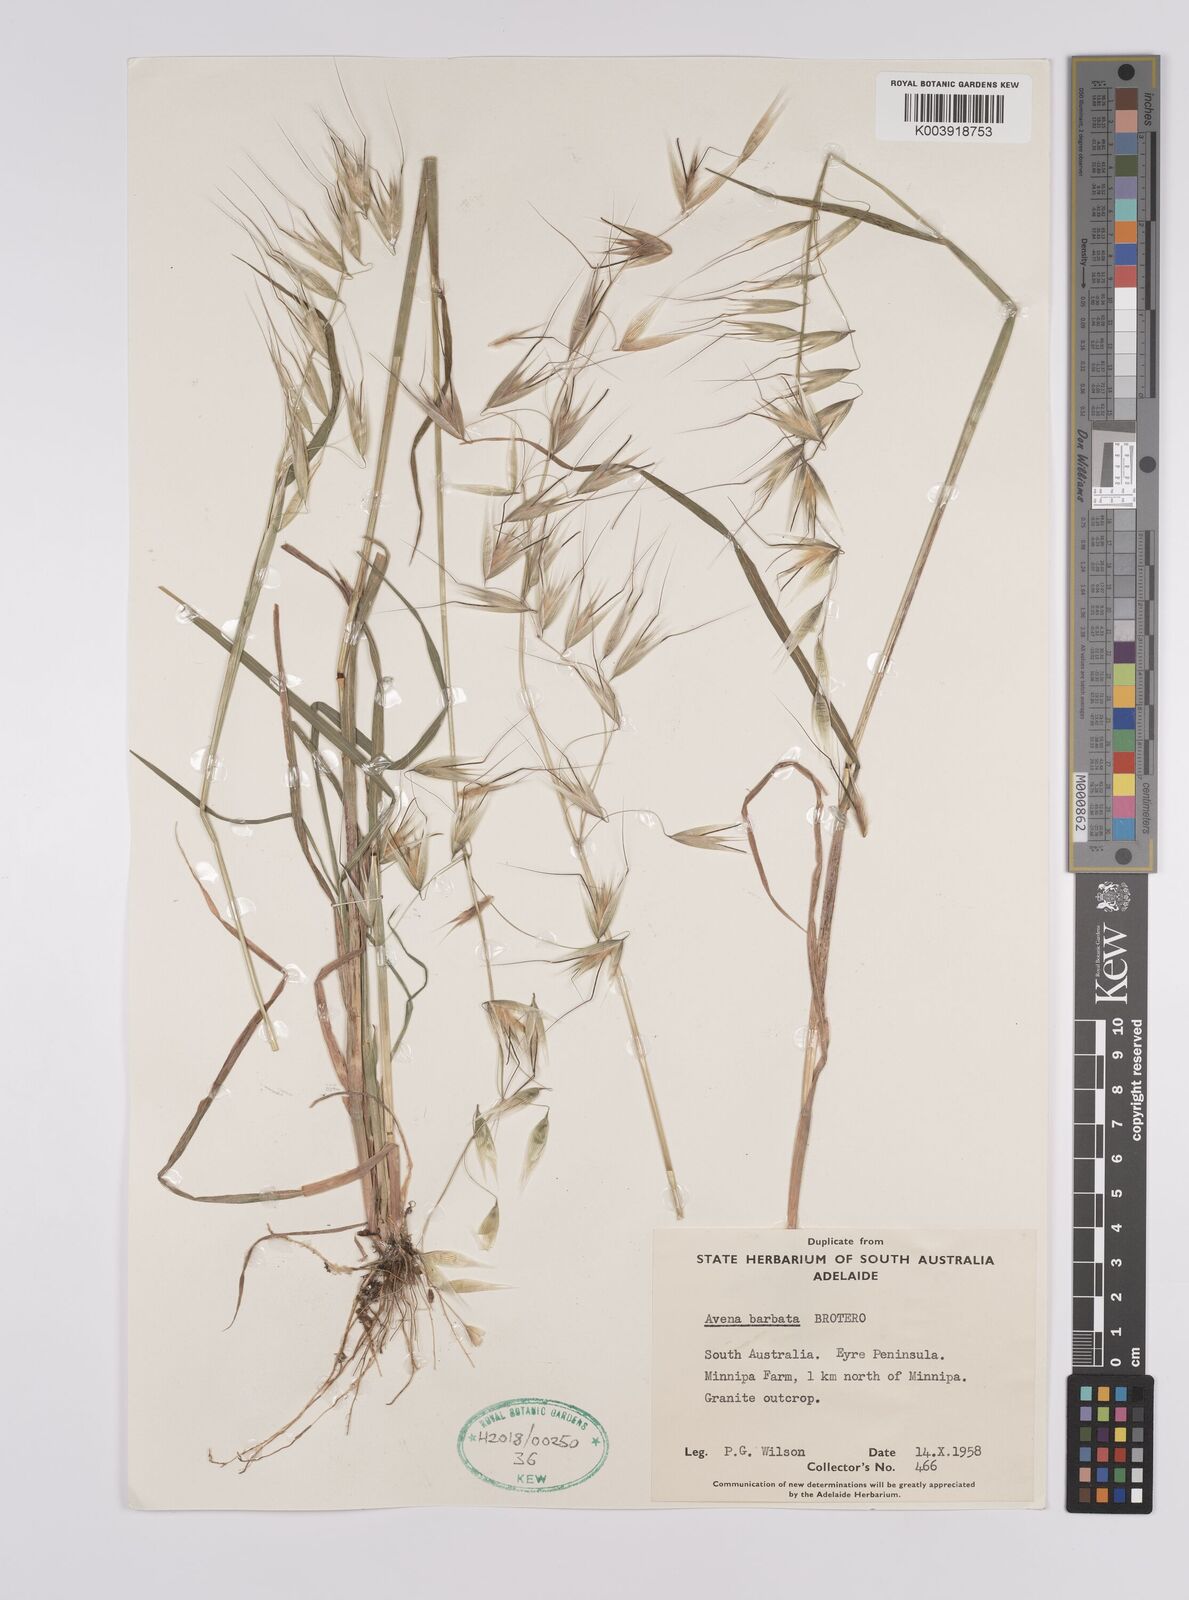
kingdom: Plantae
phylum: Tracheophyta
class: Liliopsida
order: Poales
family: Poaceae
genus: Avena
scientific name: Avena
